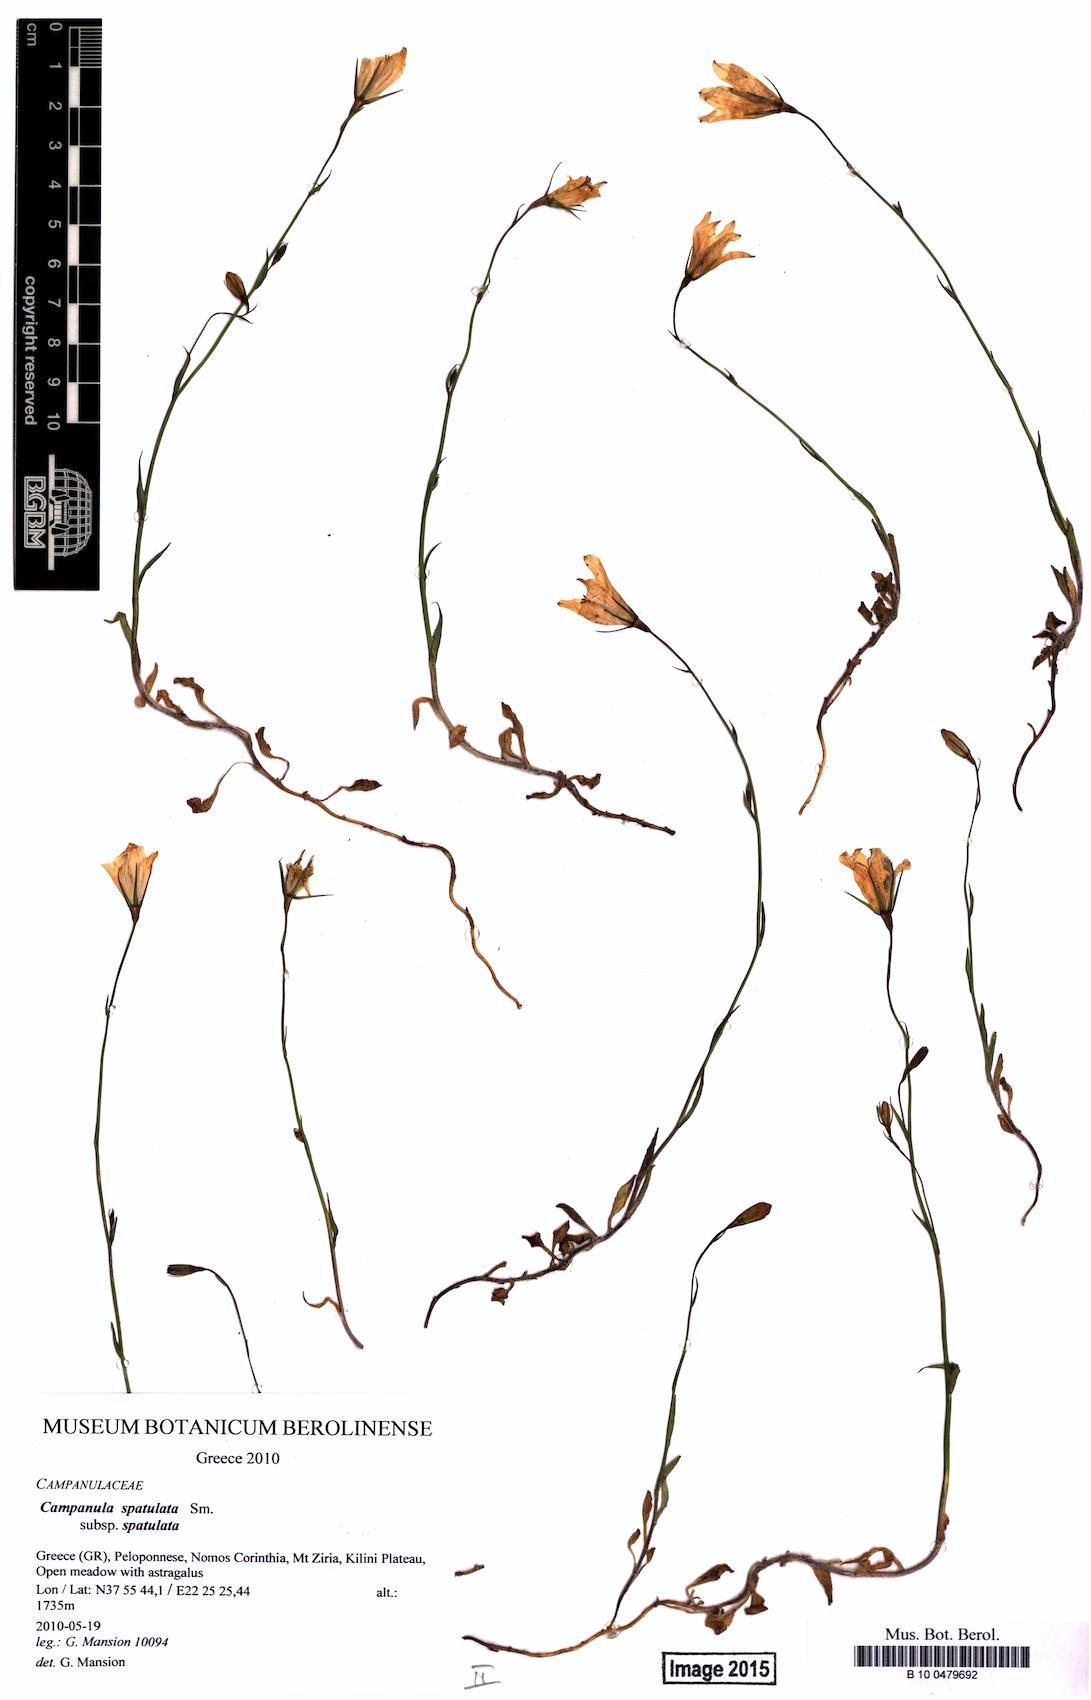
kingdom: Plantae
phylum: Tracheophyta
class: Magnoliopsida
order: Asterales
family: Campanulaceae
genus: Campanula
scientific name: Campanula spatulata
